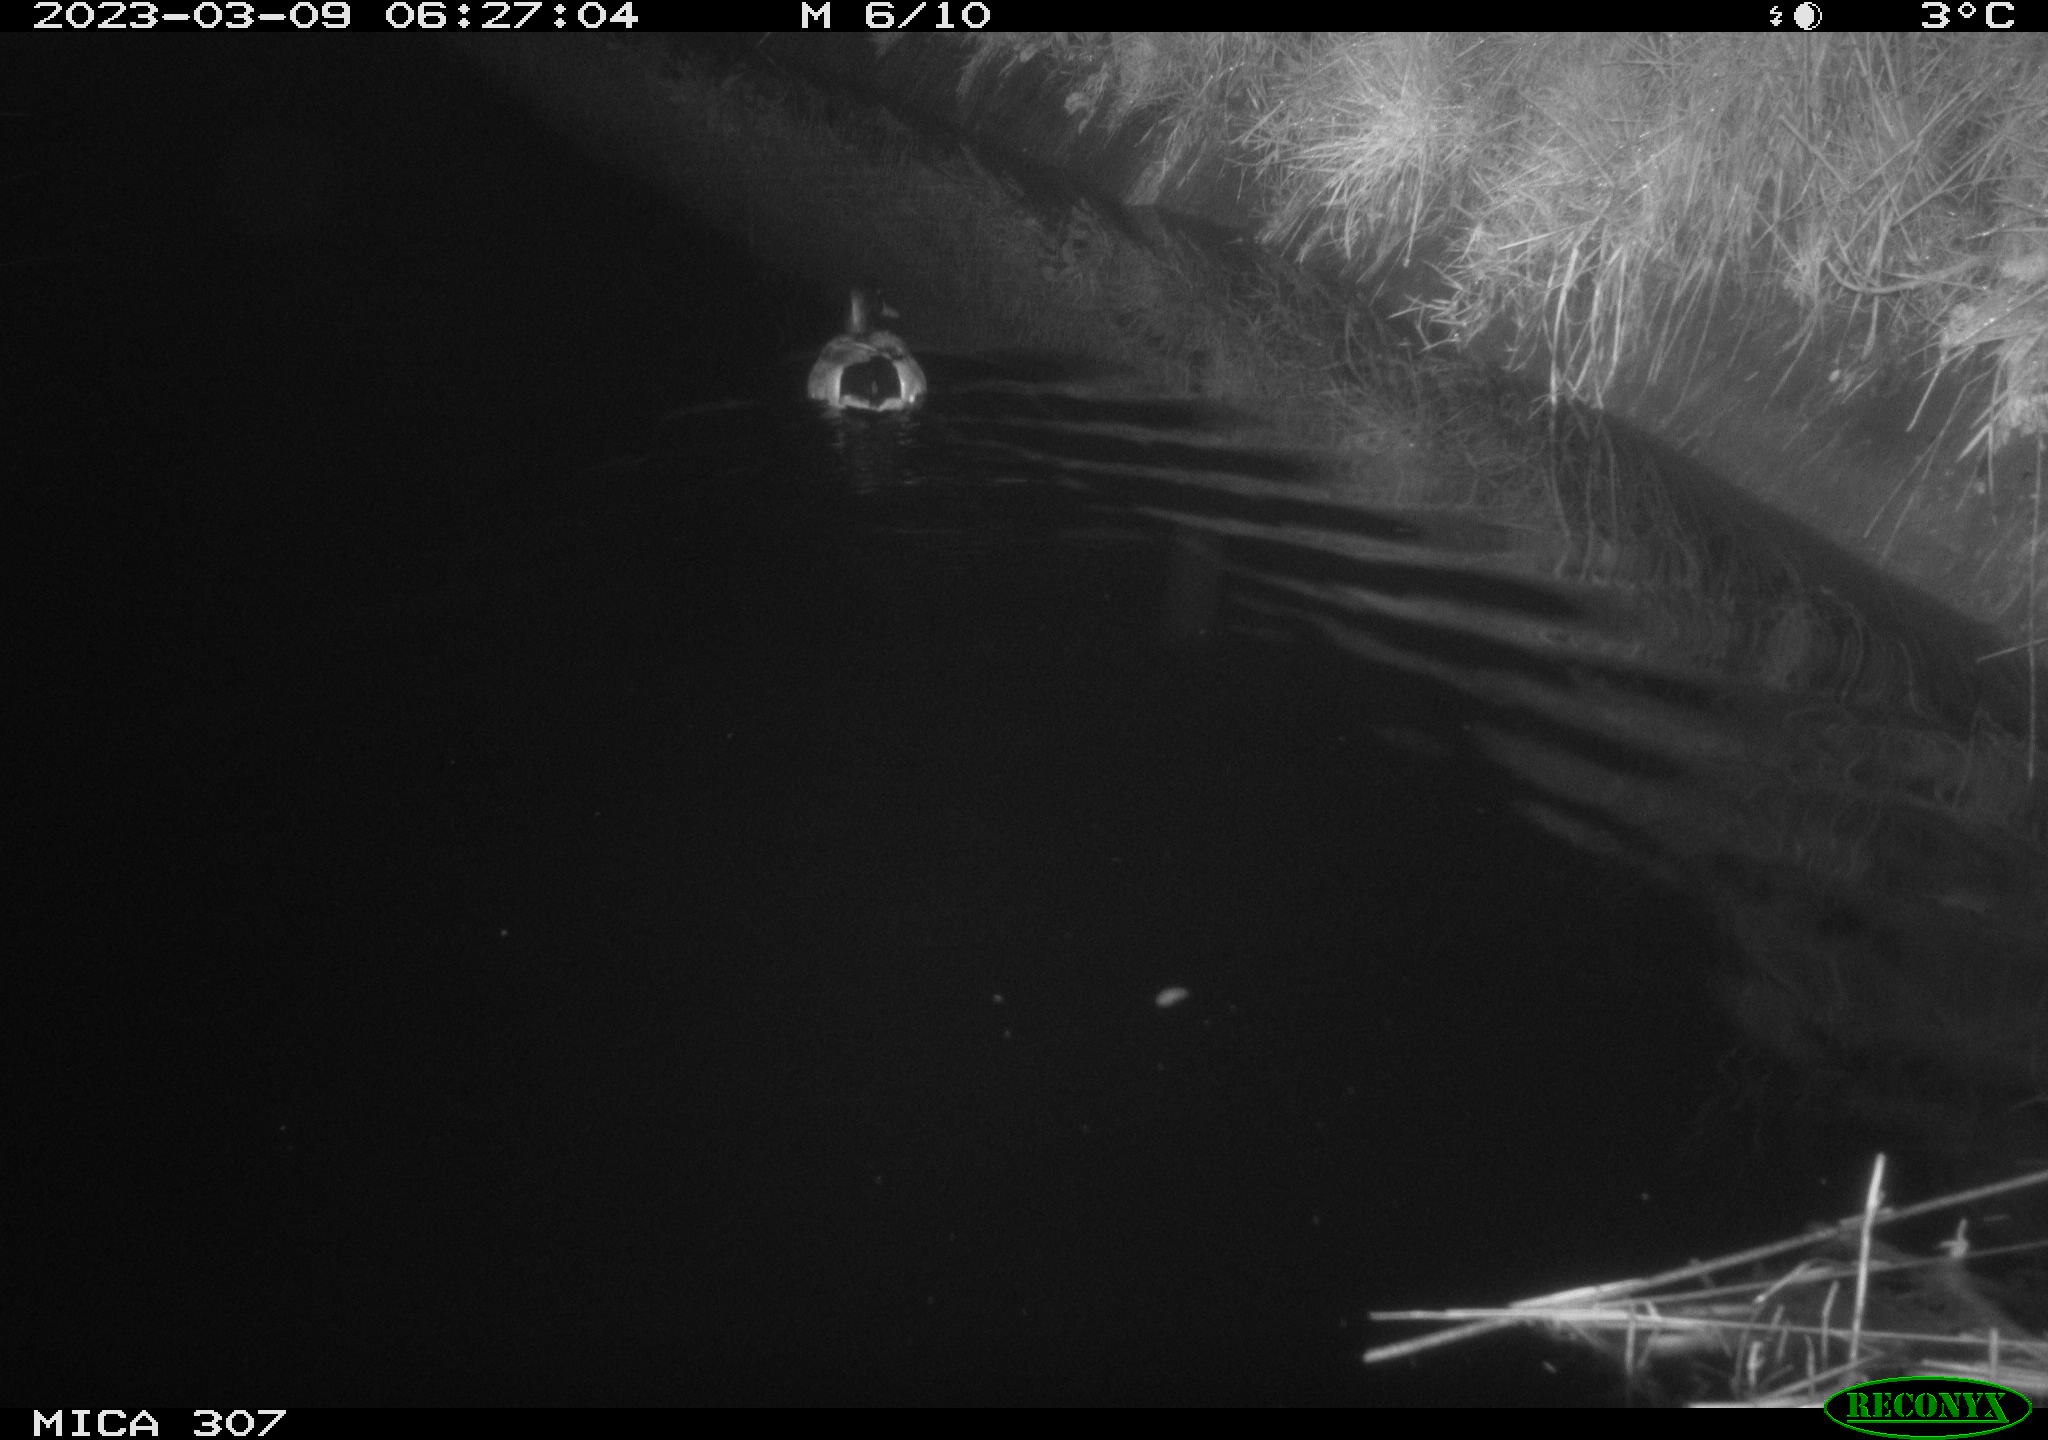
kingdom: Animalia
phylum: Chordata
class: Aves
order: Anseriformes
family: Anatidae
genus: Anas
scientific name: Anas
